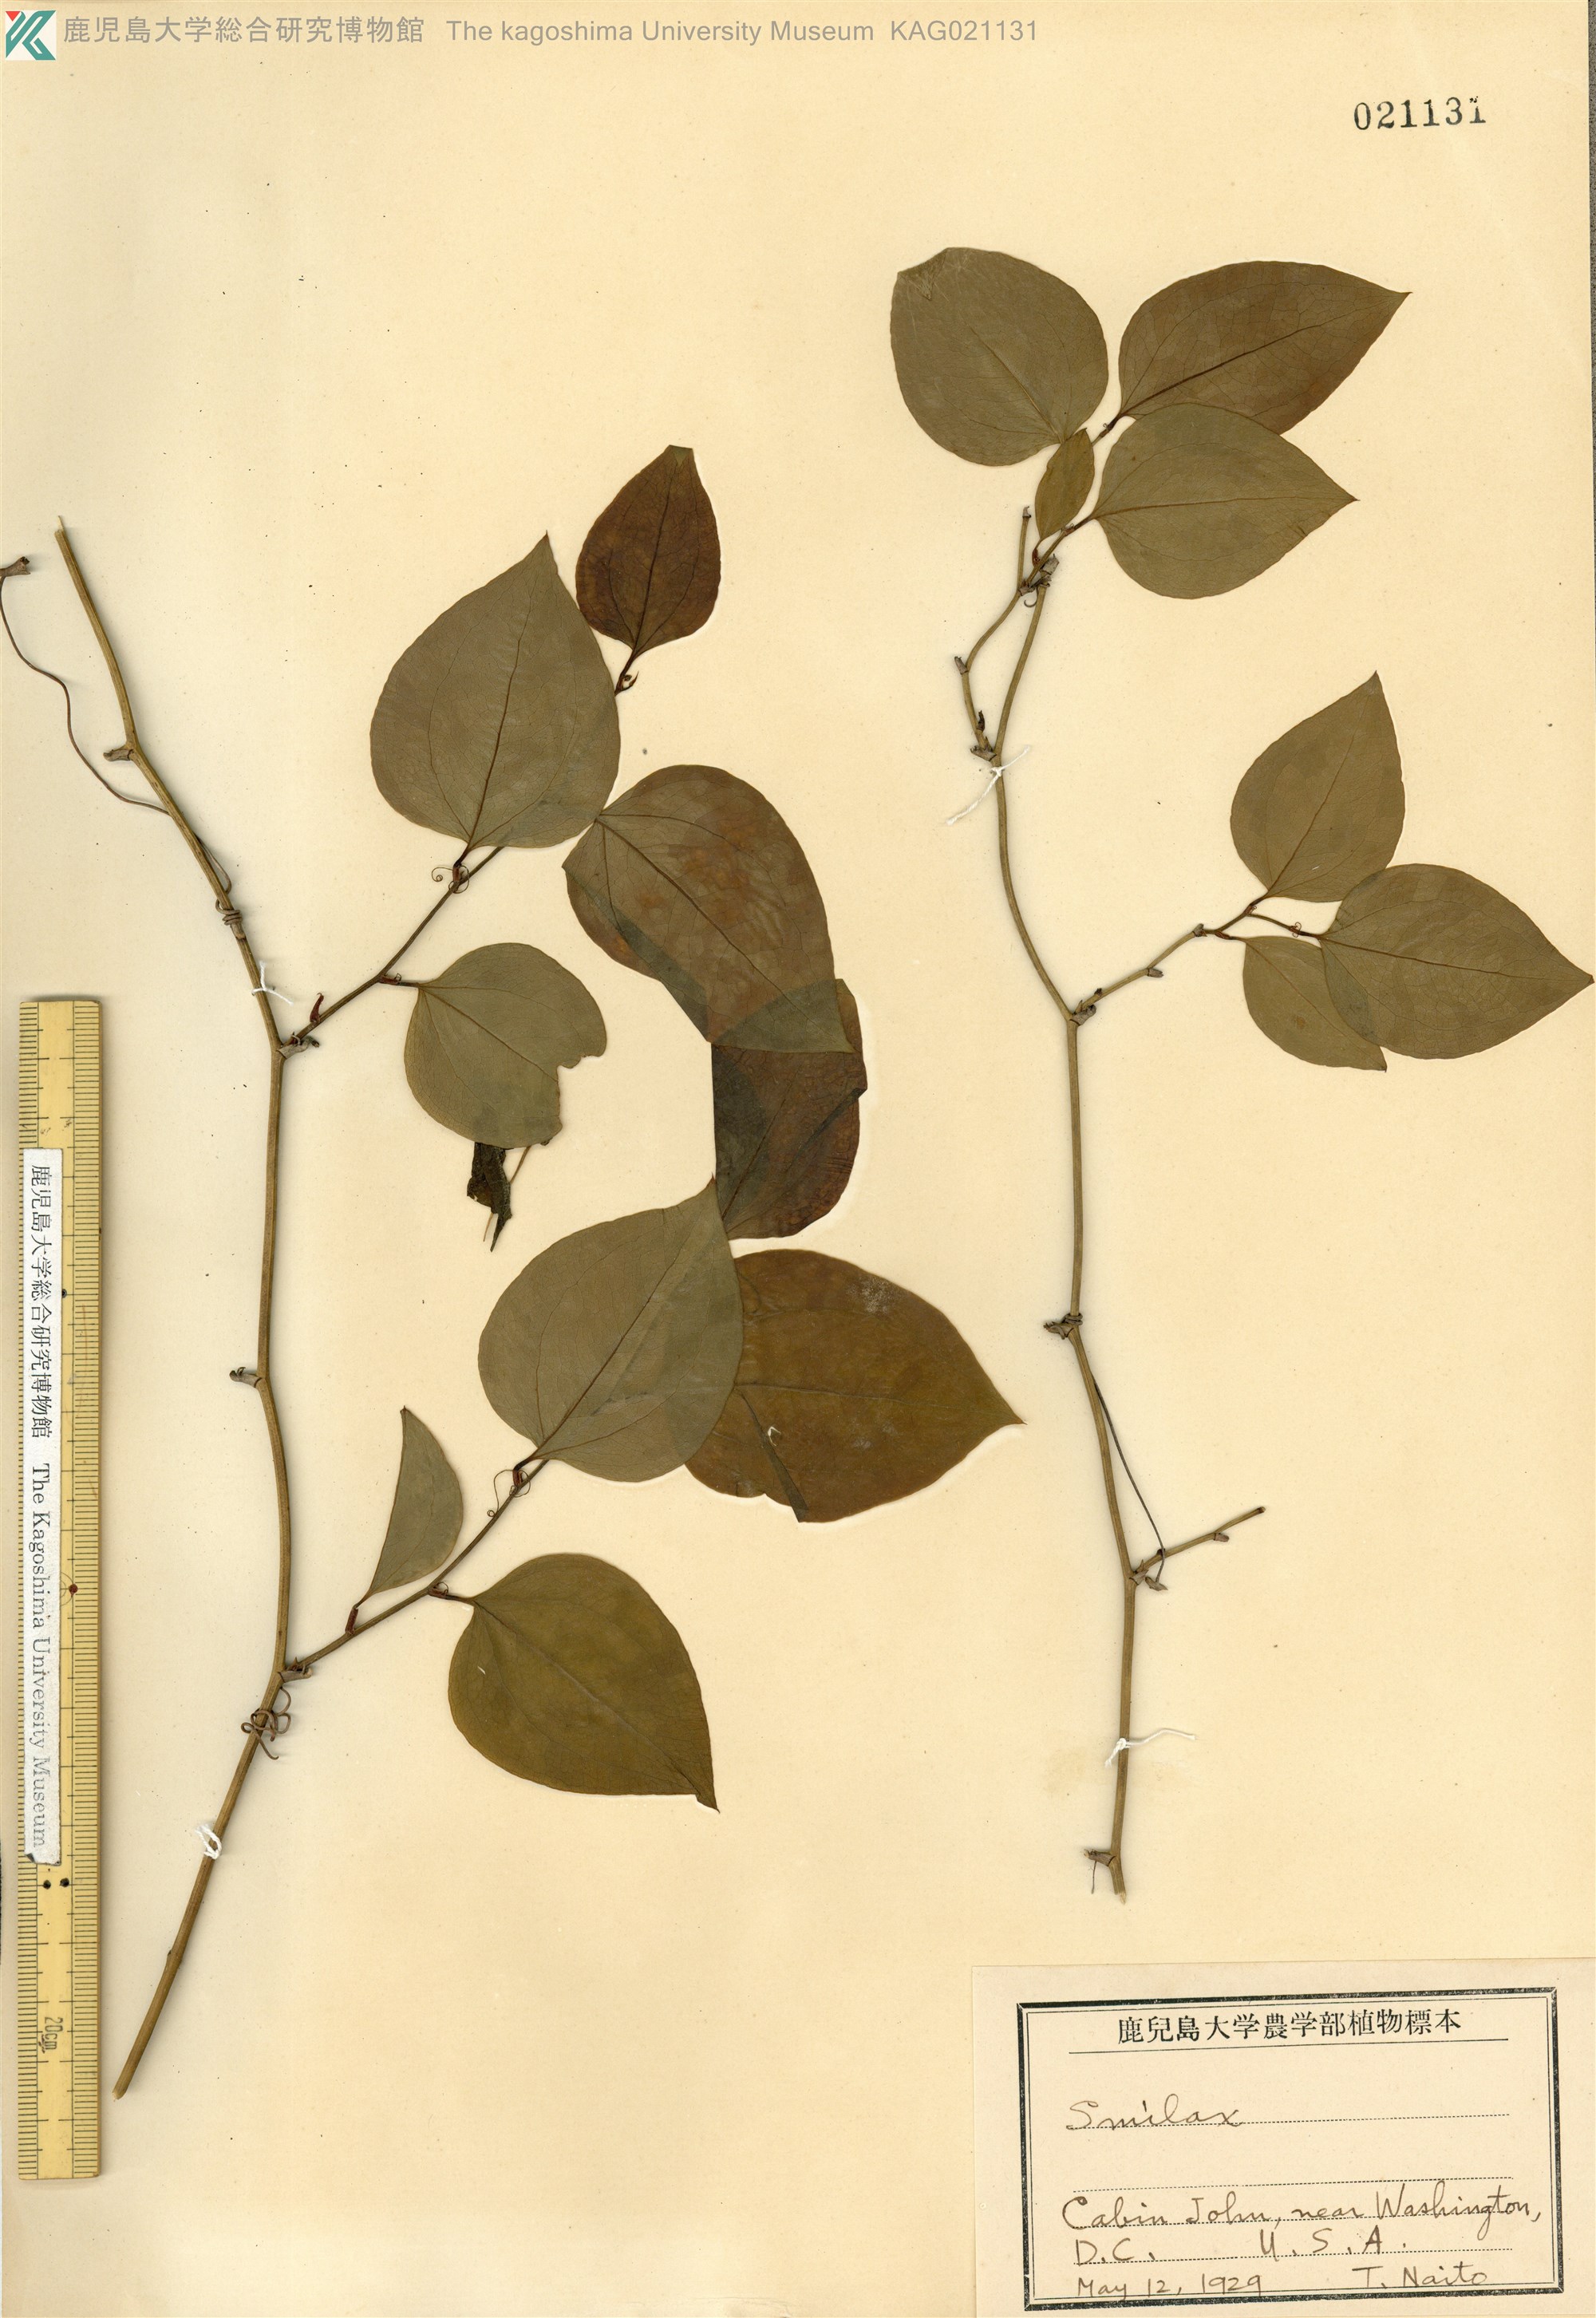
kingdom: Plantae
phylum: Tracheophyta
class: Liliopsida
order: Liliales
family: Smilacaceae
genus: Smilax
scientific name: Smilax glauca
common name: Cat greenbrier
